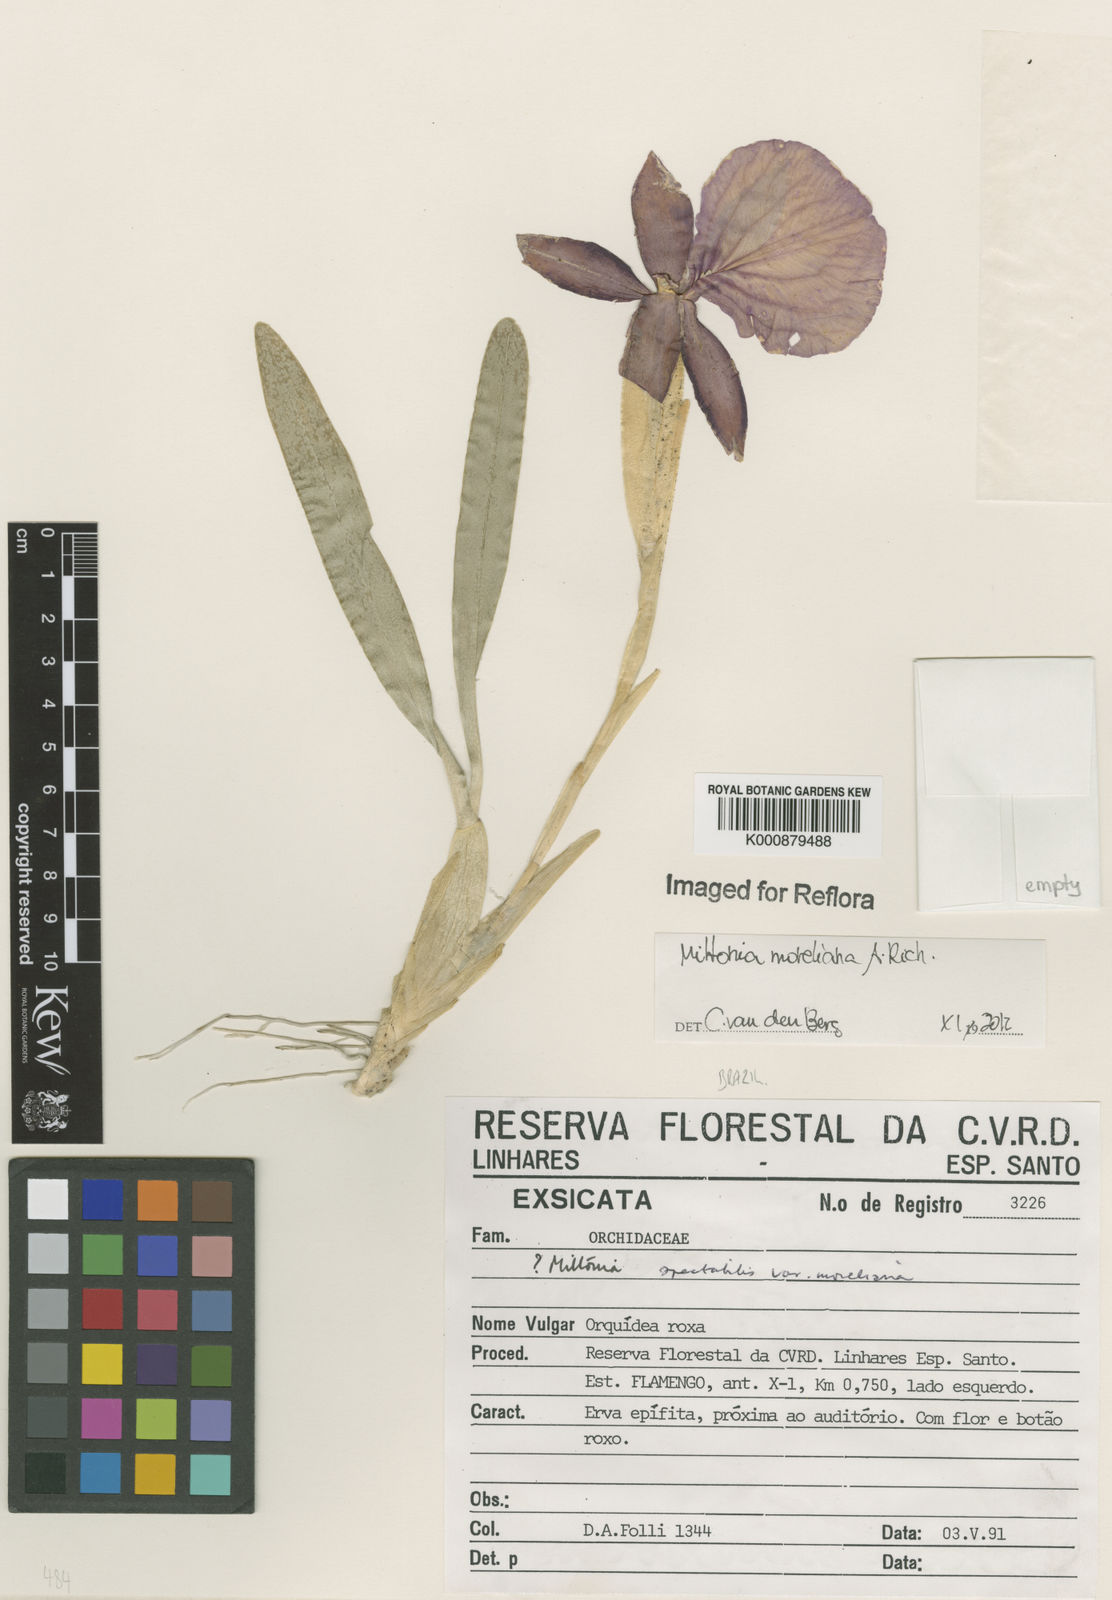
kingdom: Plantae
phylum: Tracheophyta
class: Liliopsida
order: Asparagales
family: Orchidaceae
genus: Miltonia
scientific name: Miltonia moreliana
